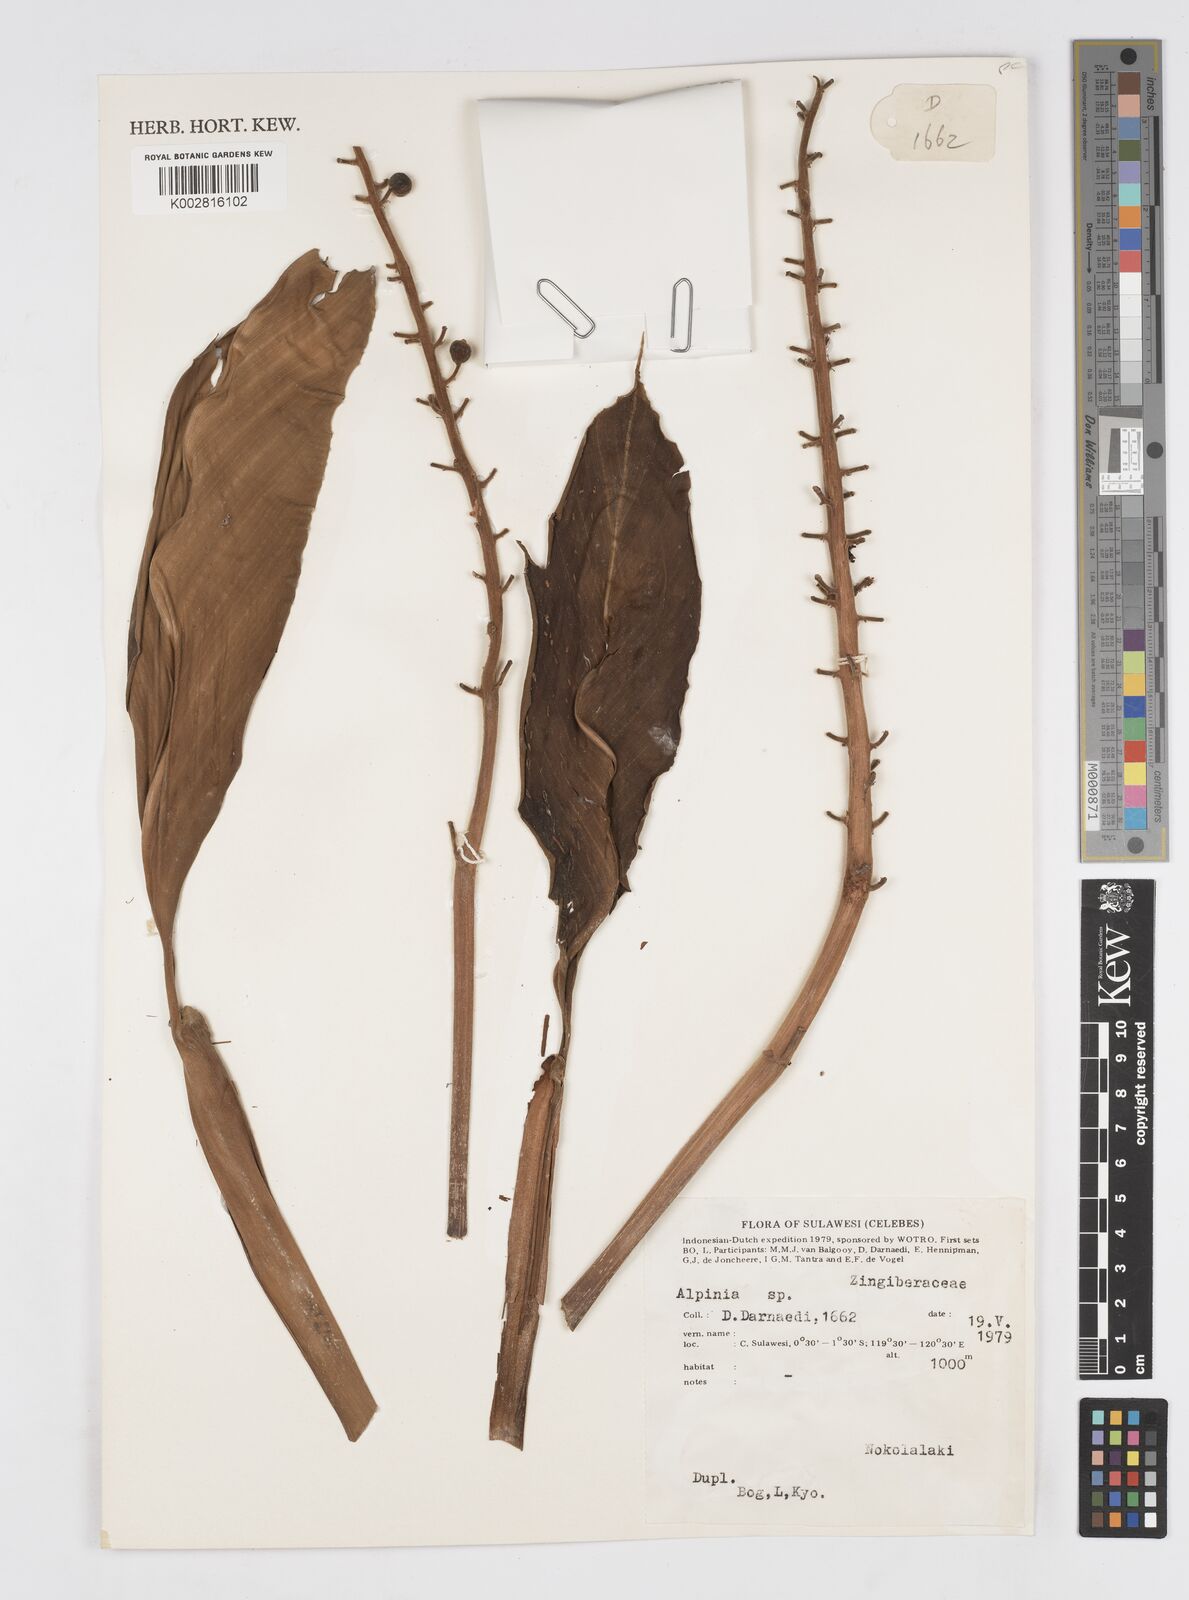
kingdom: Plantae
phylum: Tracheophyta
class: Liliopsida
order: Zingiberales
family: Zingiberaceae
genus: Alpinia
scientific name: Alpinia
